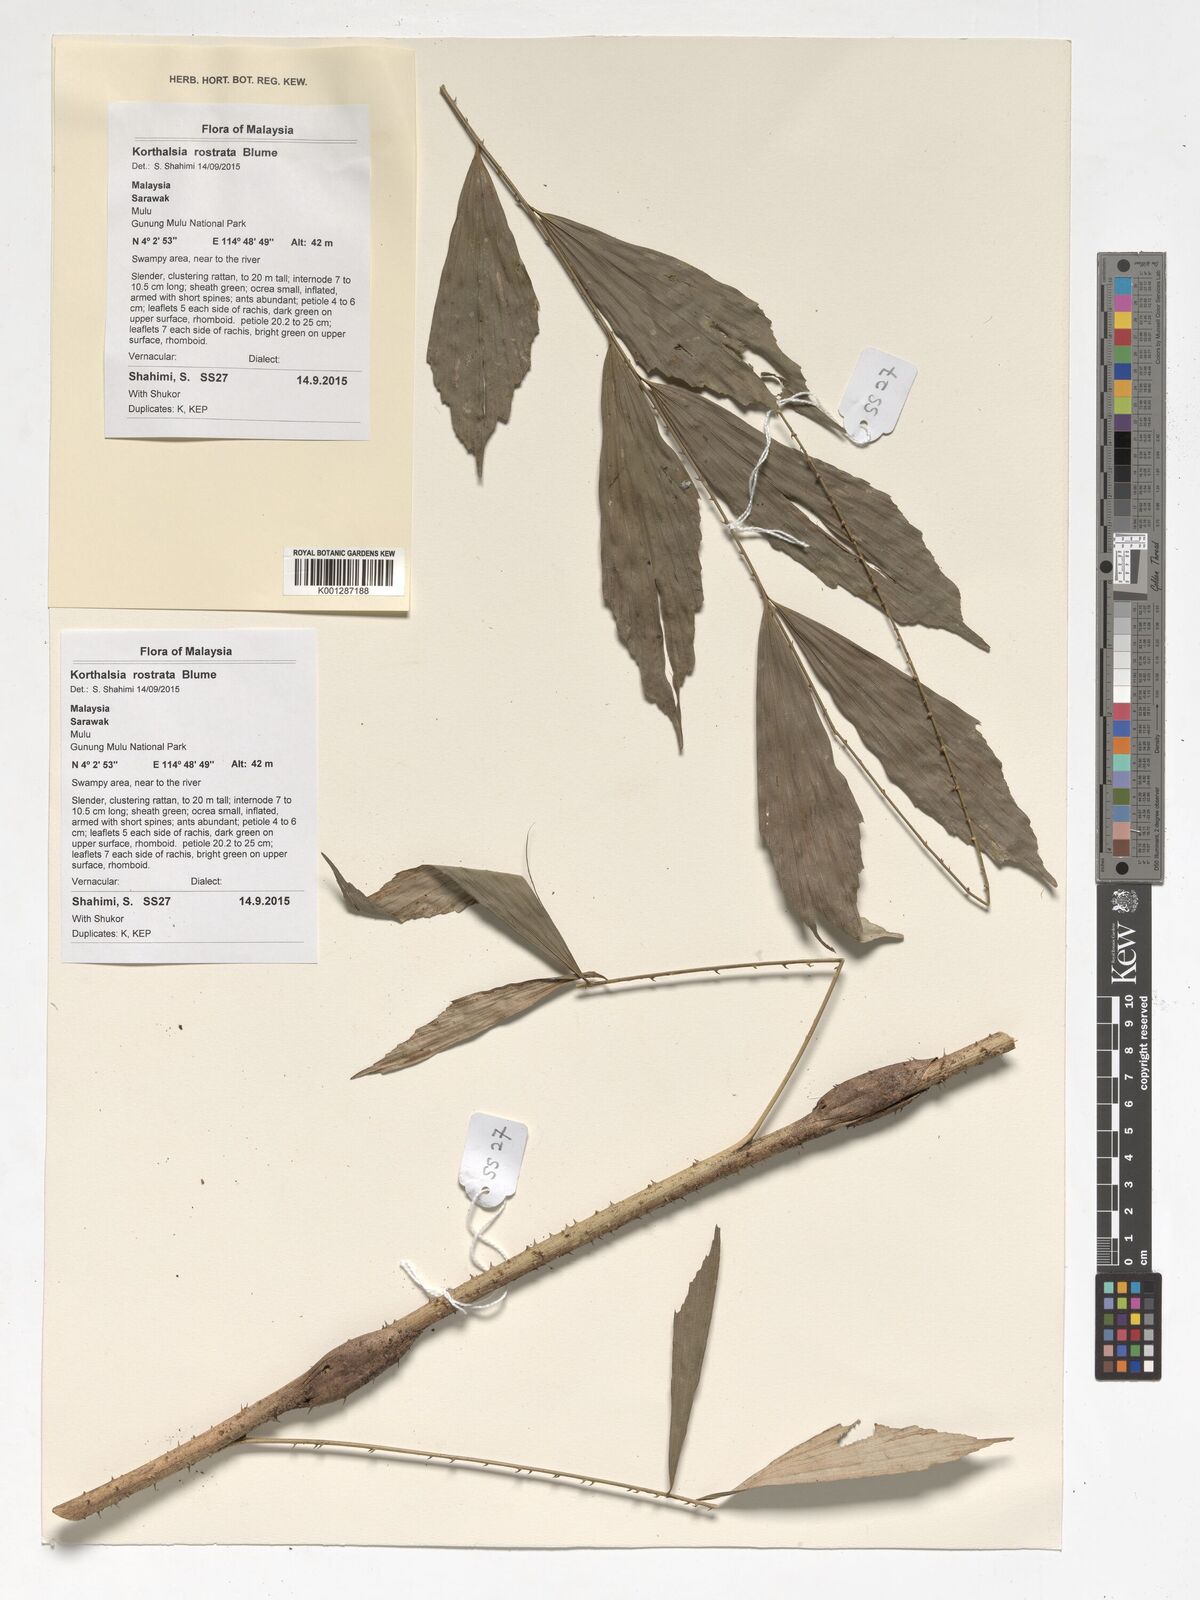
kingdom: Plantae
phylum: Tracheophyta
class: Liliopsida
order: Arecales
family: Arecaceae
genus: Korthalsia
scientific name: Korthalsia rostrata
